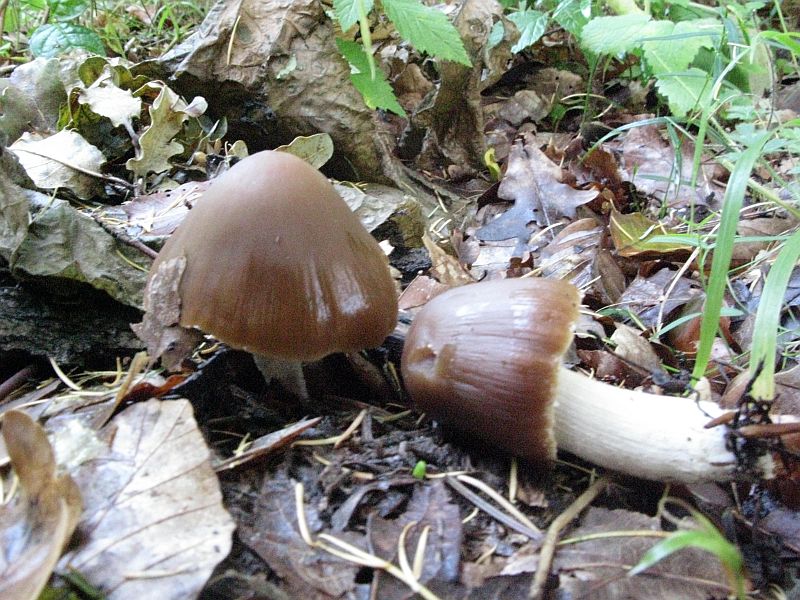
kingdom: Fungi
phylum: Basidiomycota
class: Agaricomycetes
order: Agaricales
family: Psathyrellaceae
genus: Psathyrella
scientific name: Psathyrella fusca
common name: gråbladet mørkhat
